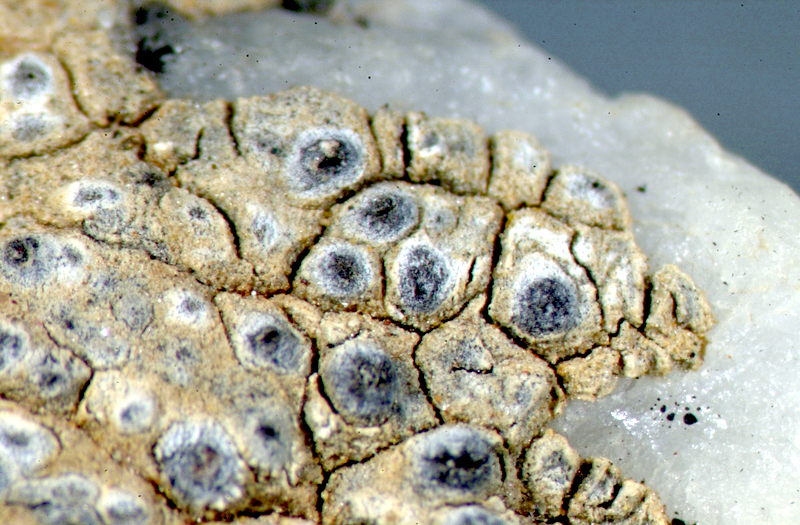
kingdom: Fungi
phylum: Ascomycota
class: Lecanoromycetes
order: Ostropales
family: Graphidaceae
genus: Diploschistes
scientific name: Diploschistes
